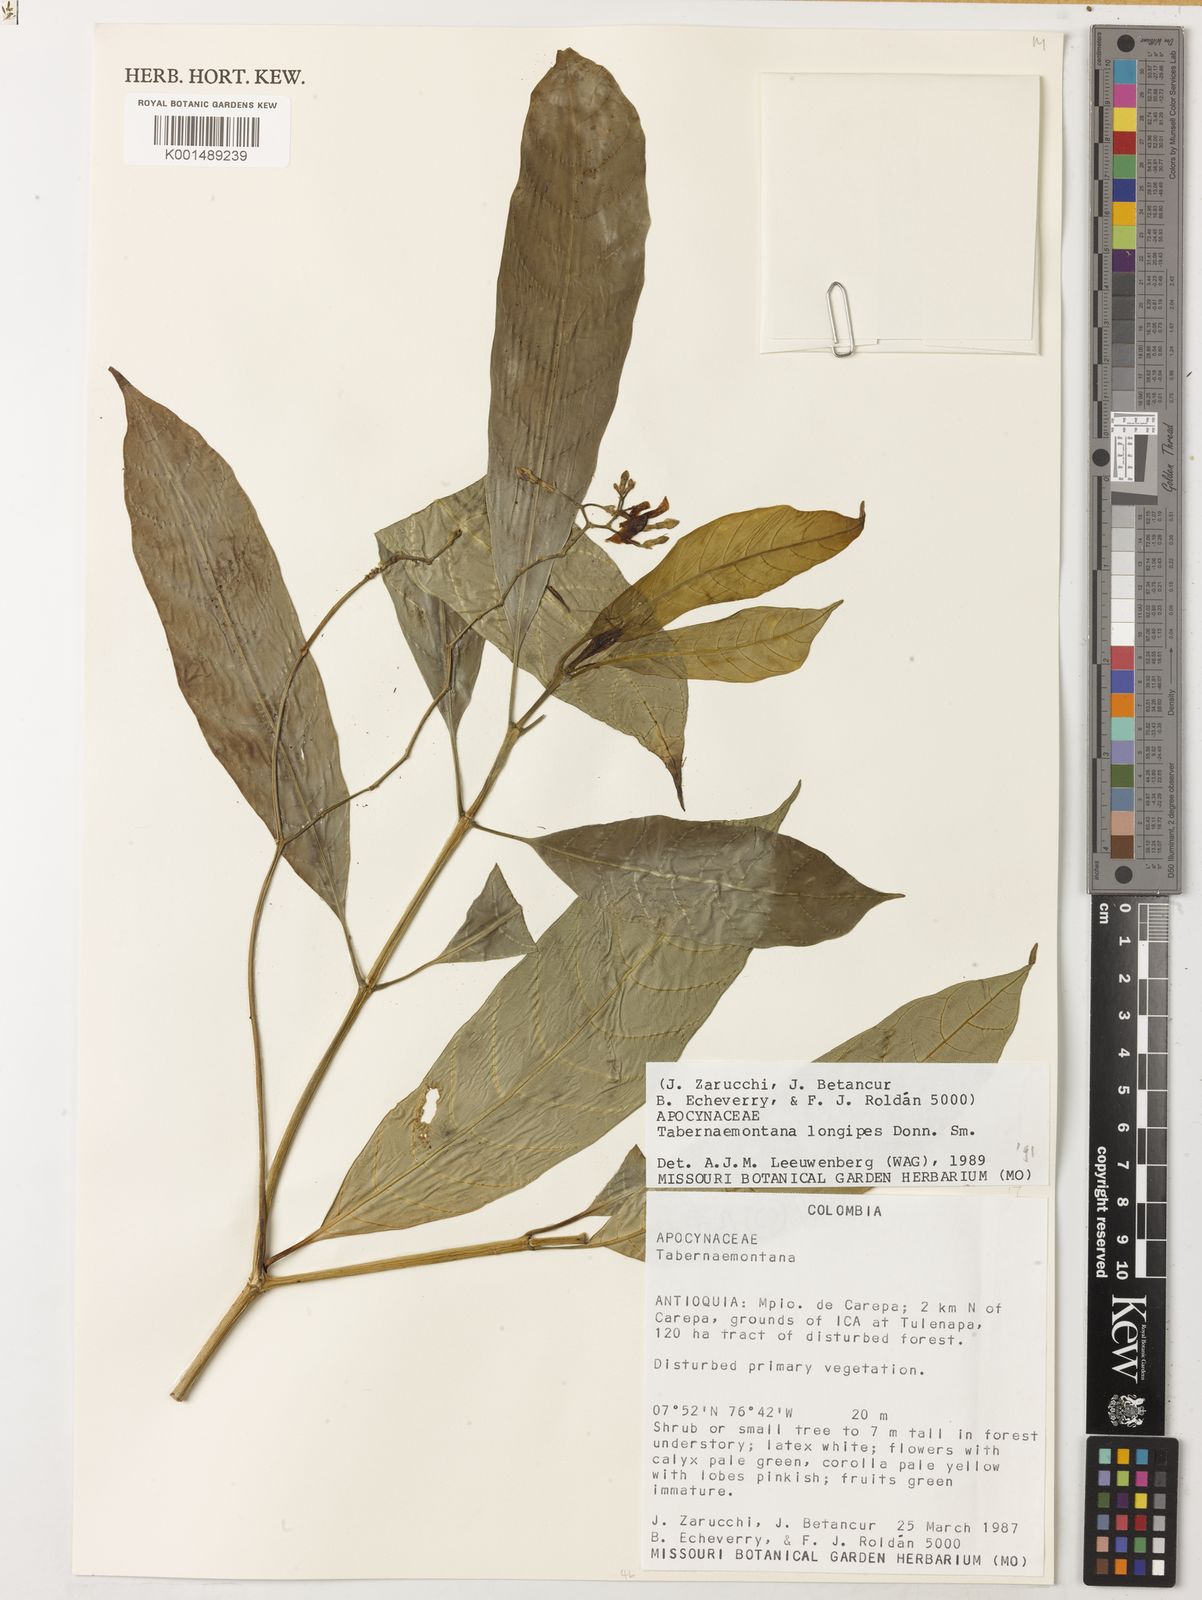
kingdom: Plantae
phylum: Tracheophyta
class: Magnoliopsida
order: Gentianales
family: Apocynaceae
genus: Tabernaemontana
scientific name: Tabernaemontana longipes
